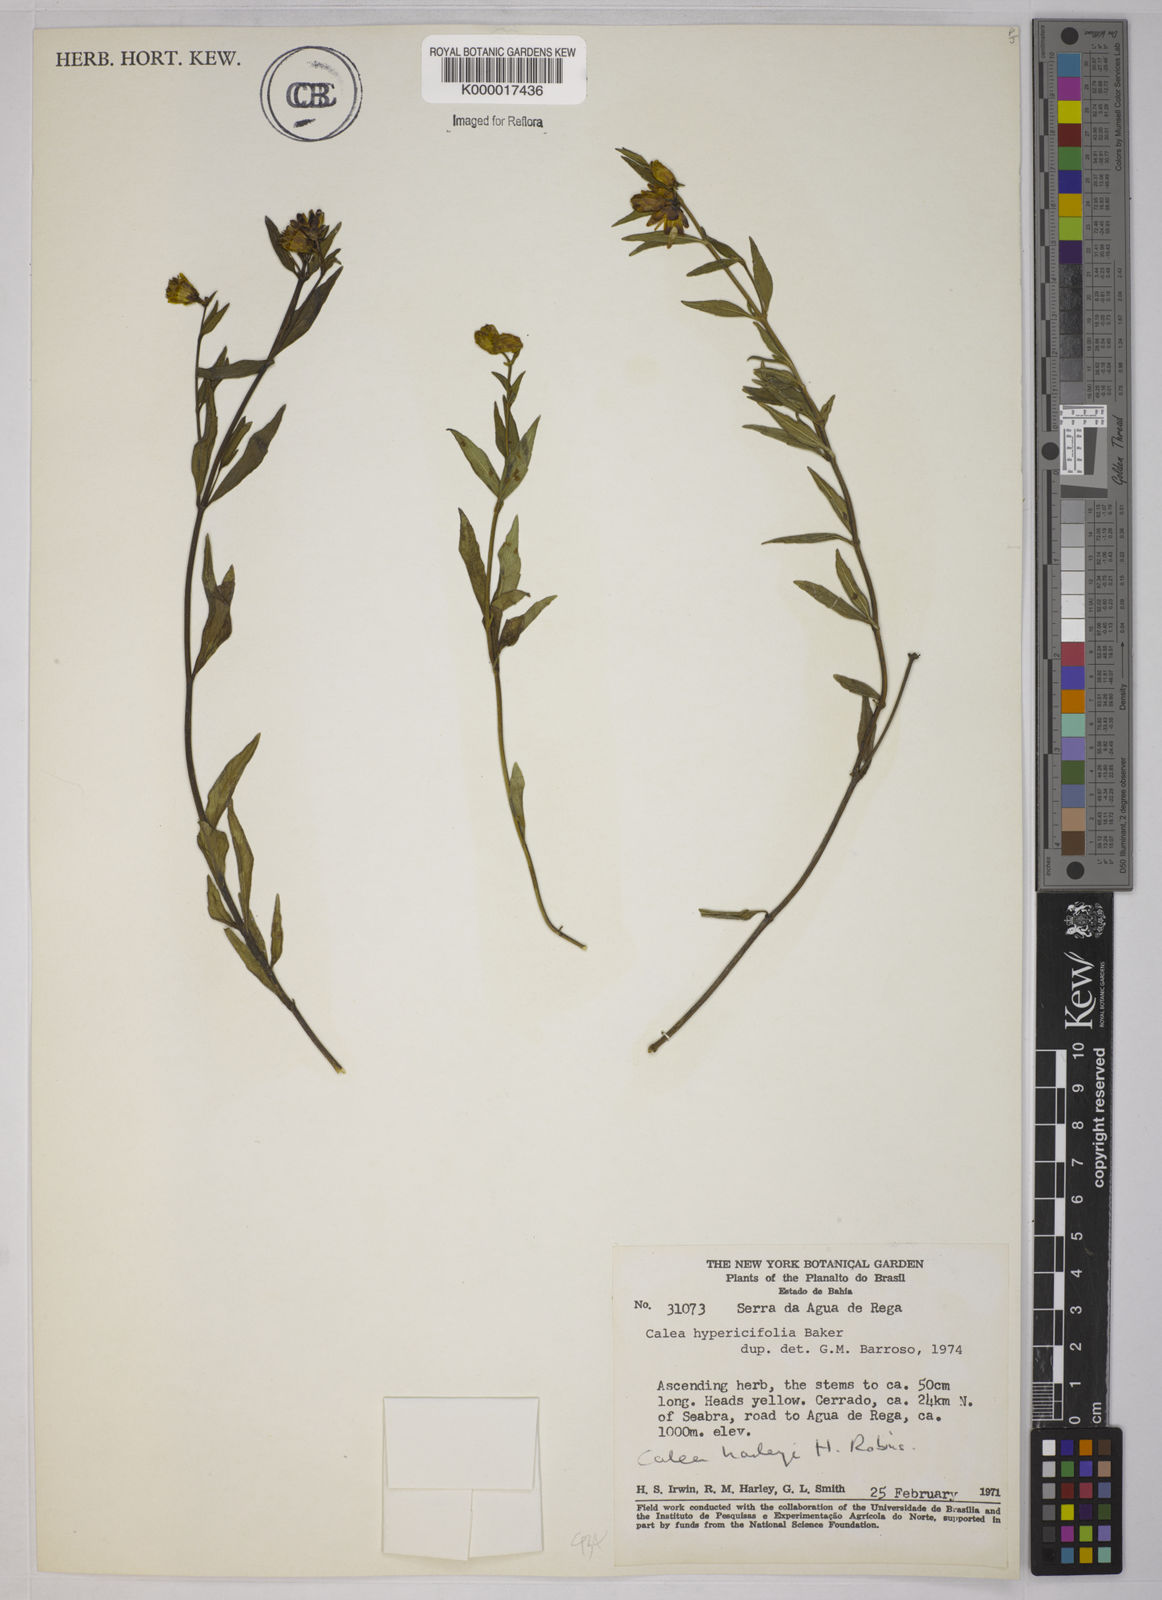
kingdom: Plantae
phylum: Tracheophyta
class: Magnoliopsida
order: Asterales
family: Asteraceae
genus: Calea
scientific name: Calea harleyi
